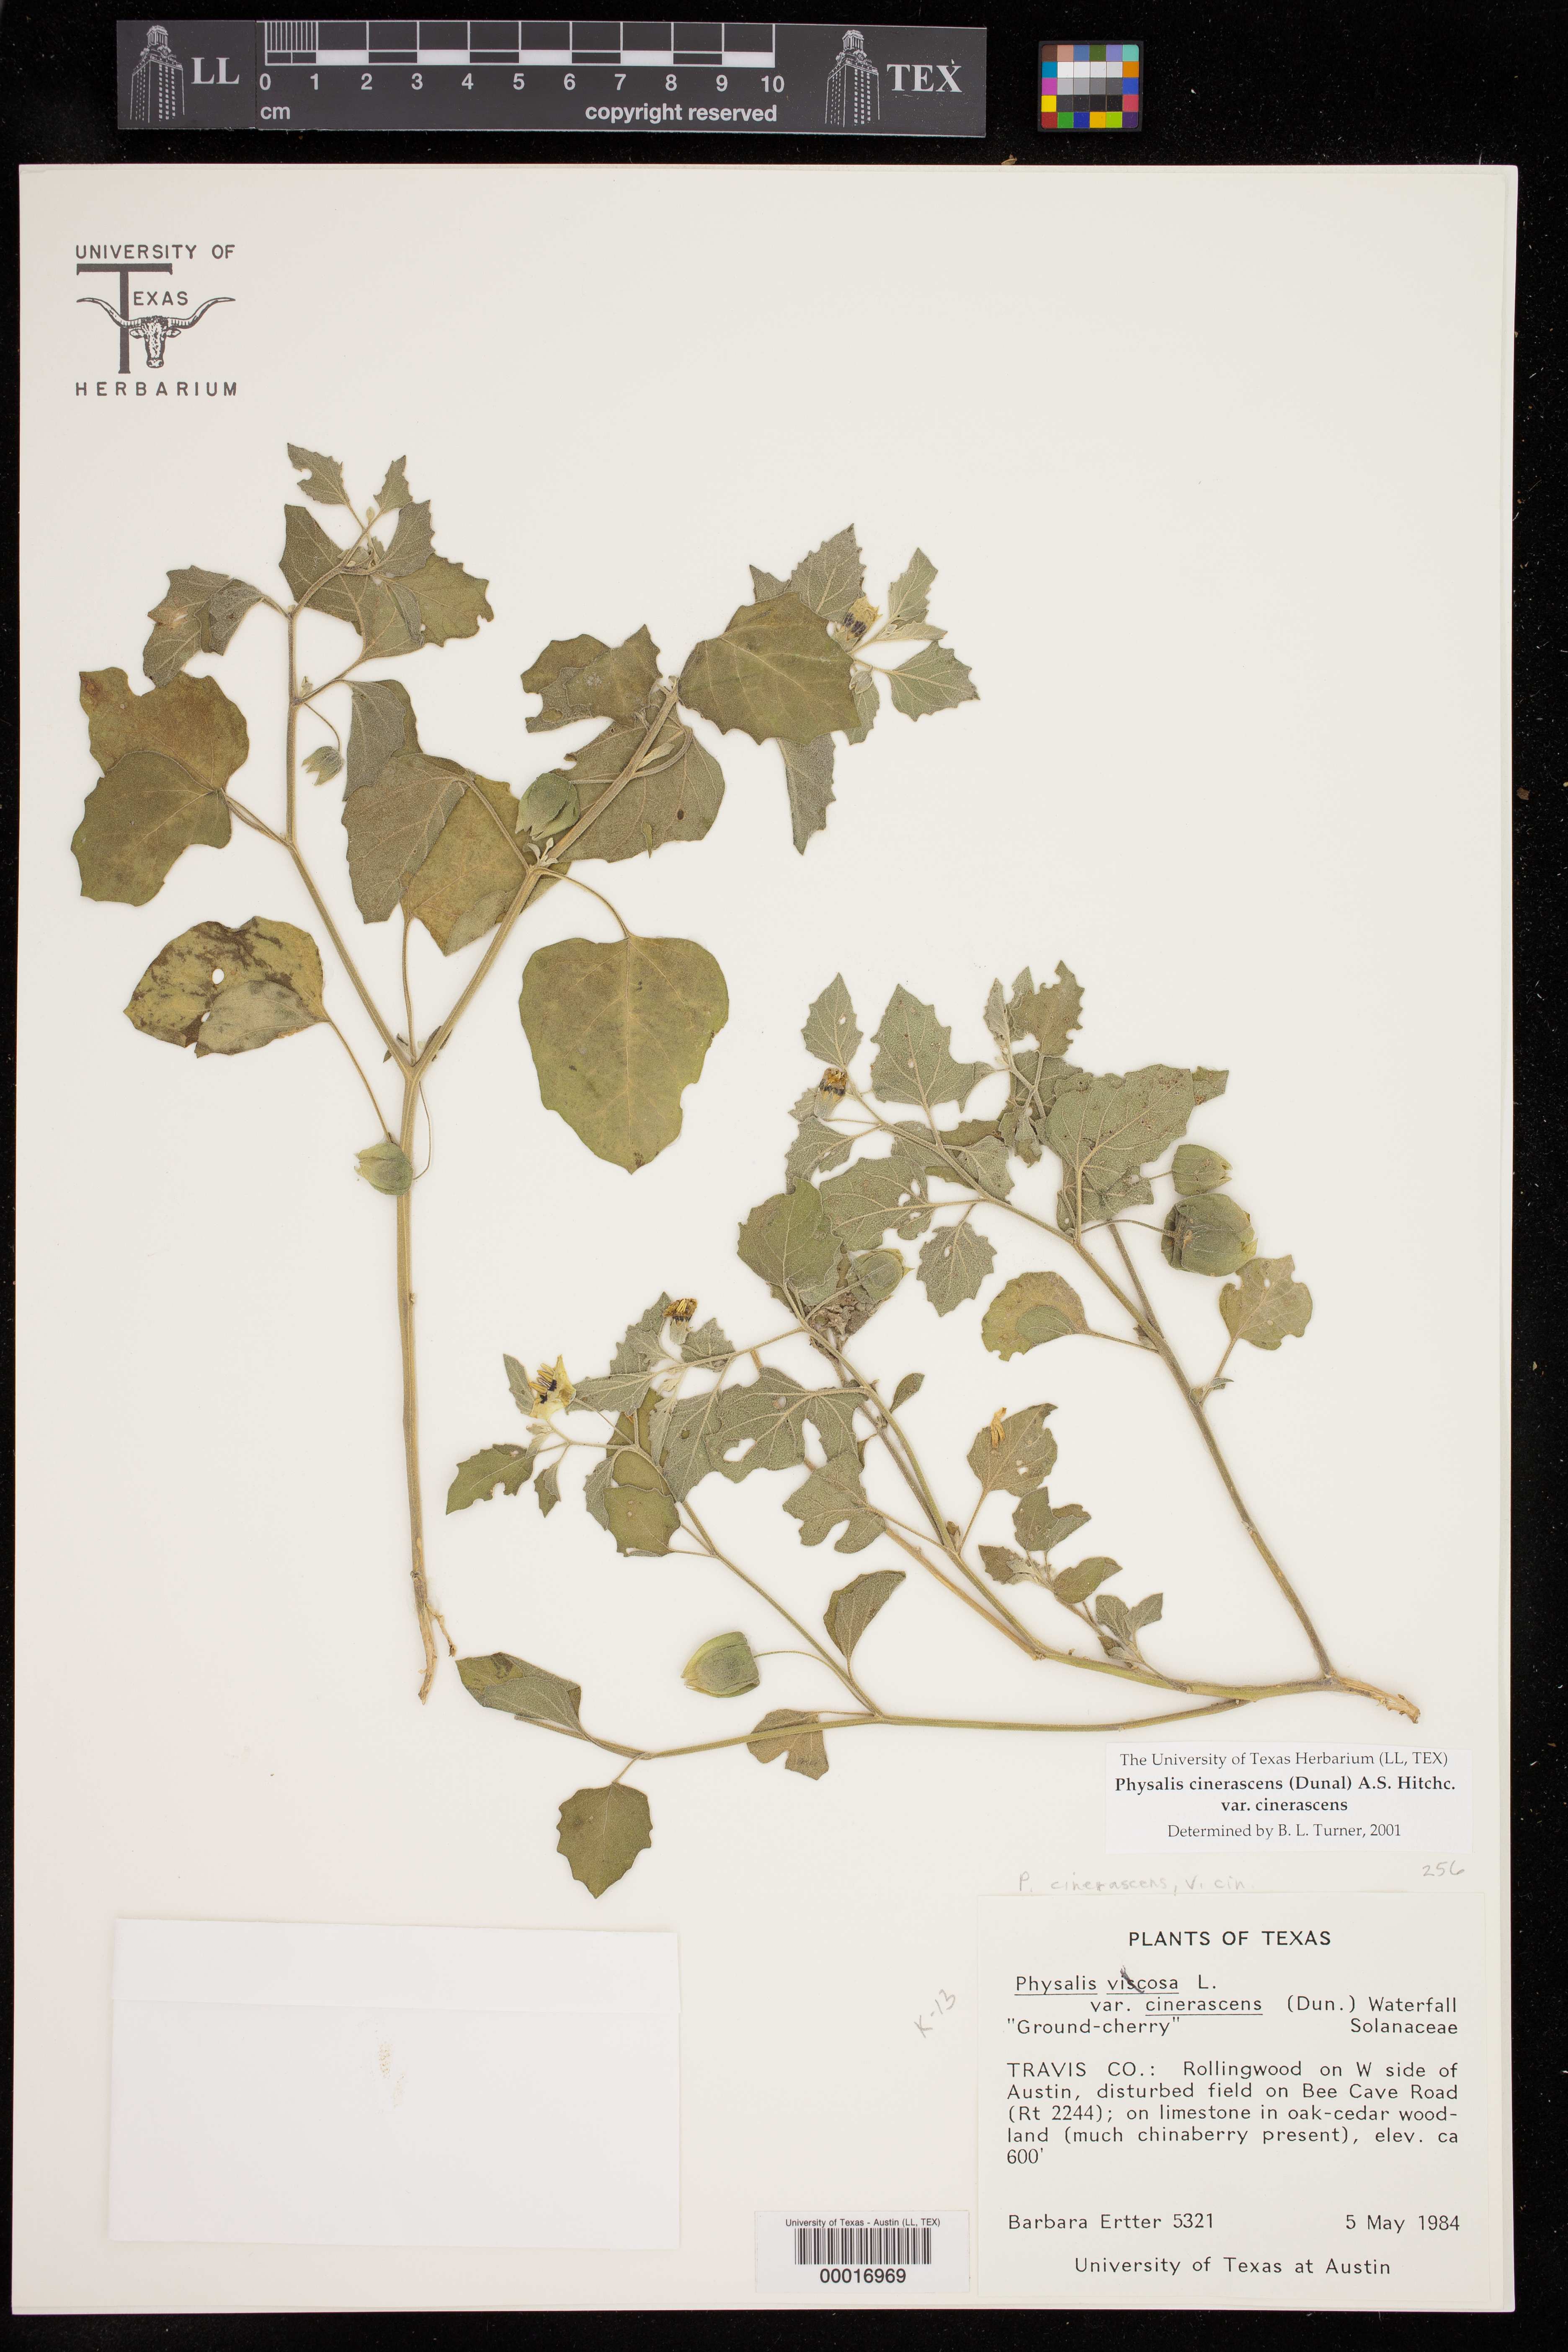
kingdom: Plantae
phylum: Tracheophyta
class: Magnoliopsida
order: Solanales
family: Solanaceae
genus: Physalis
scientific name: Physalis cinerascens
